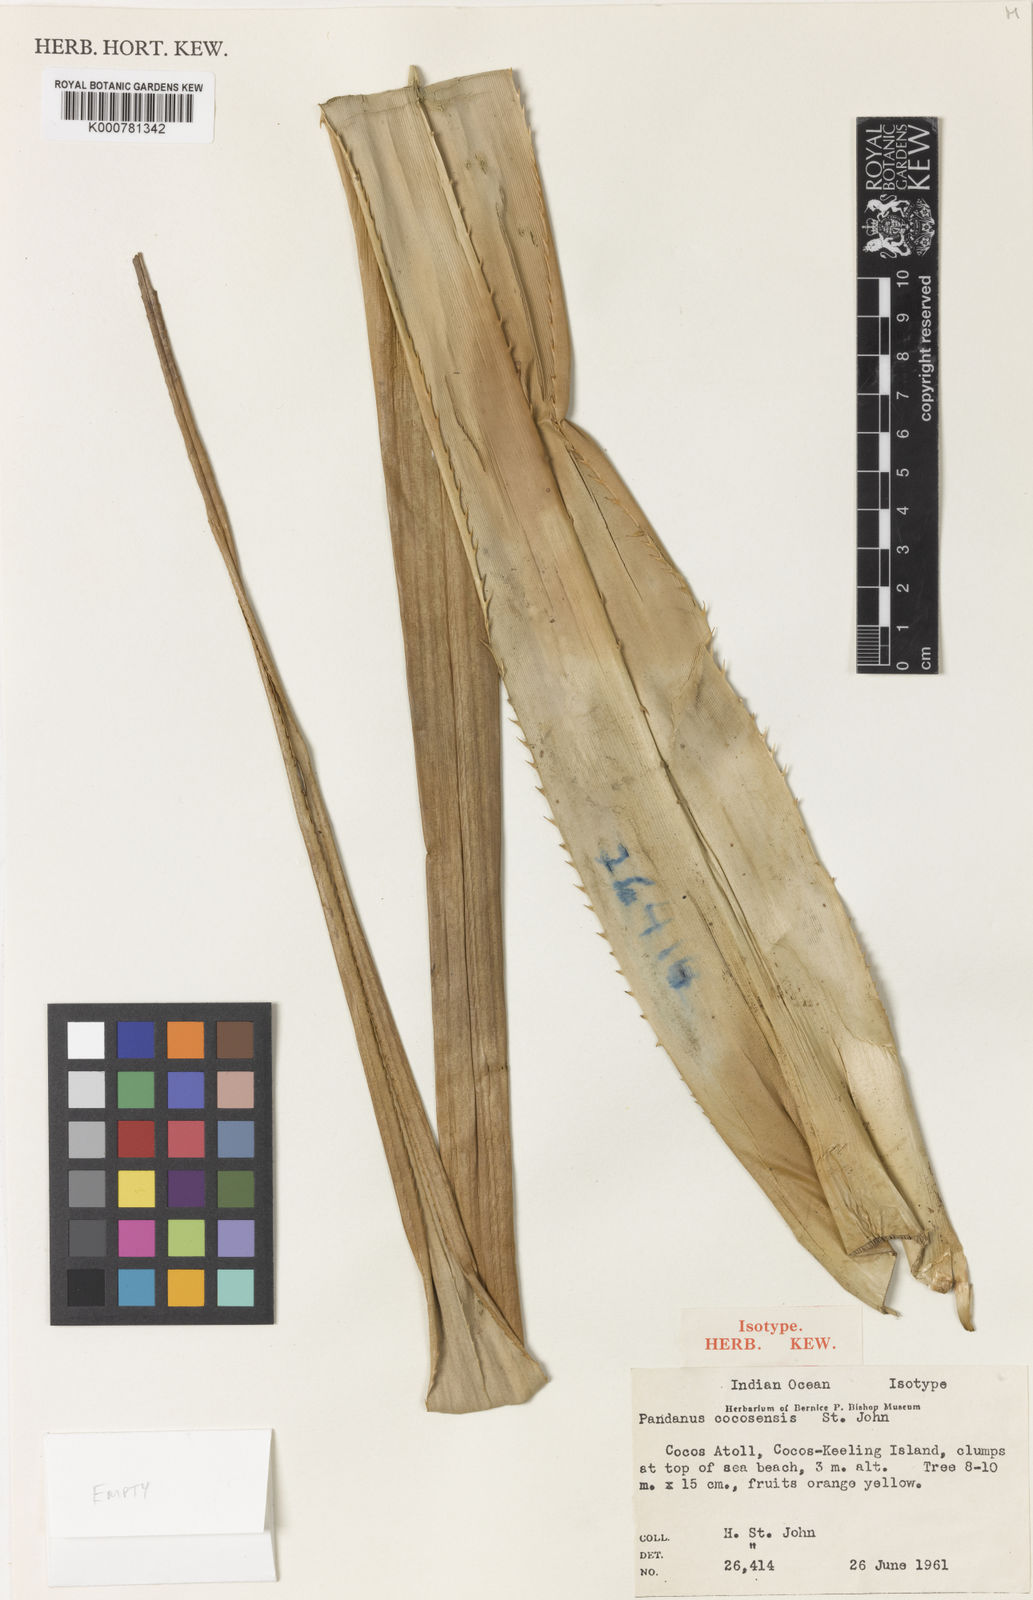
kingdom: Plantae
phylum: Tracheophyta
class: Liliopsida
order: Pandanales
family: Pandanaceae
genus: Pandanus
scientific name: Pandanus
